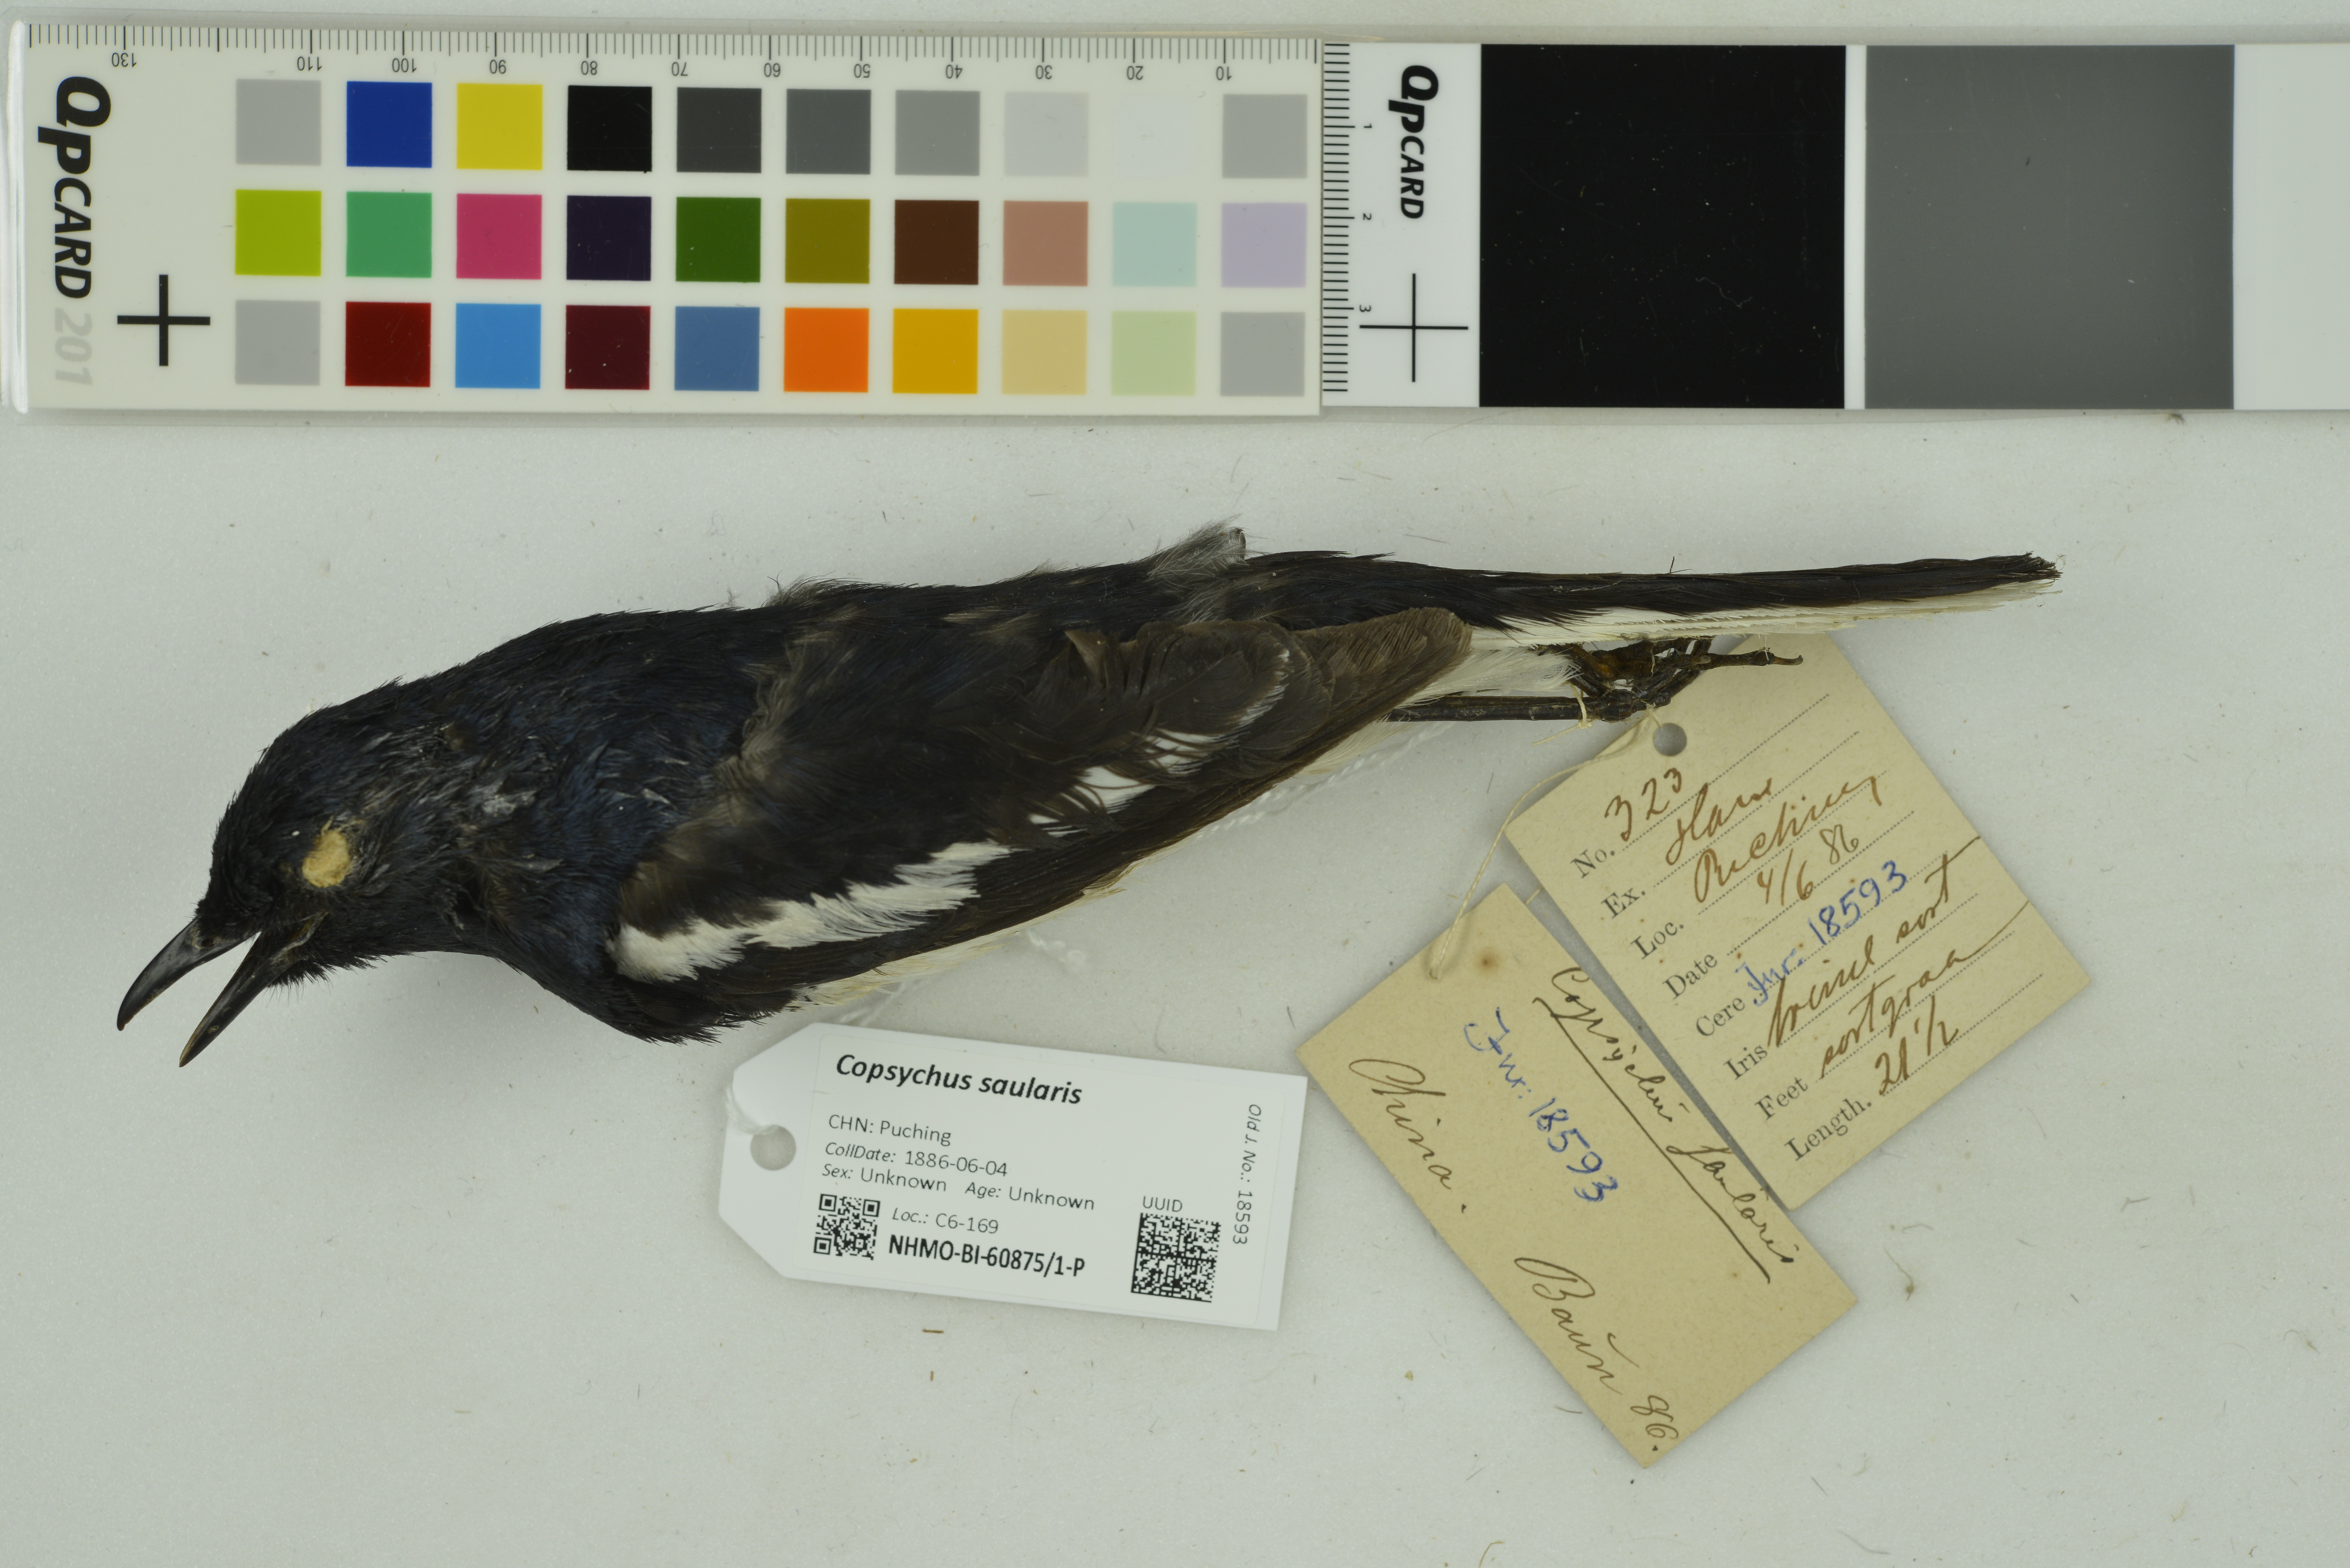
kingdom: Animalia
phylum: Chordata
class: Aves
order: Passeriformes
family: Muscicapidae
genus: Copsychus
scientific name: Copsychus saularis
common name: Oriental magpie-robin
